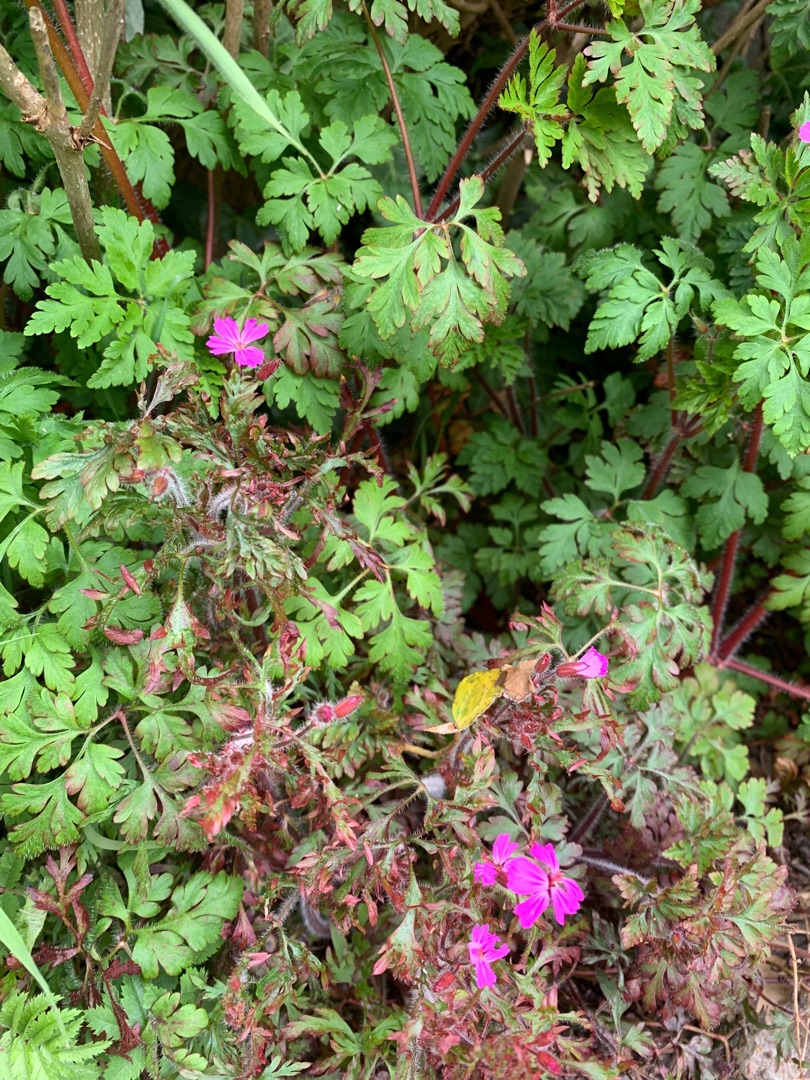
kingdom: Plantae
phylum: Tracheophyta
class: Magnoliopsida
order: Geraniales
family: Geraniaceae
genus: Geranium
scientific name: Geranium robertianum
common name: Stinkende storkenæb
